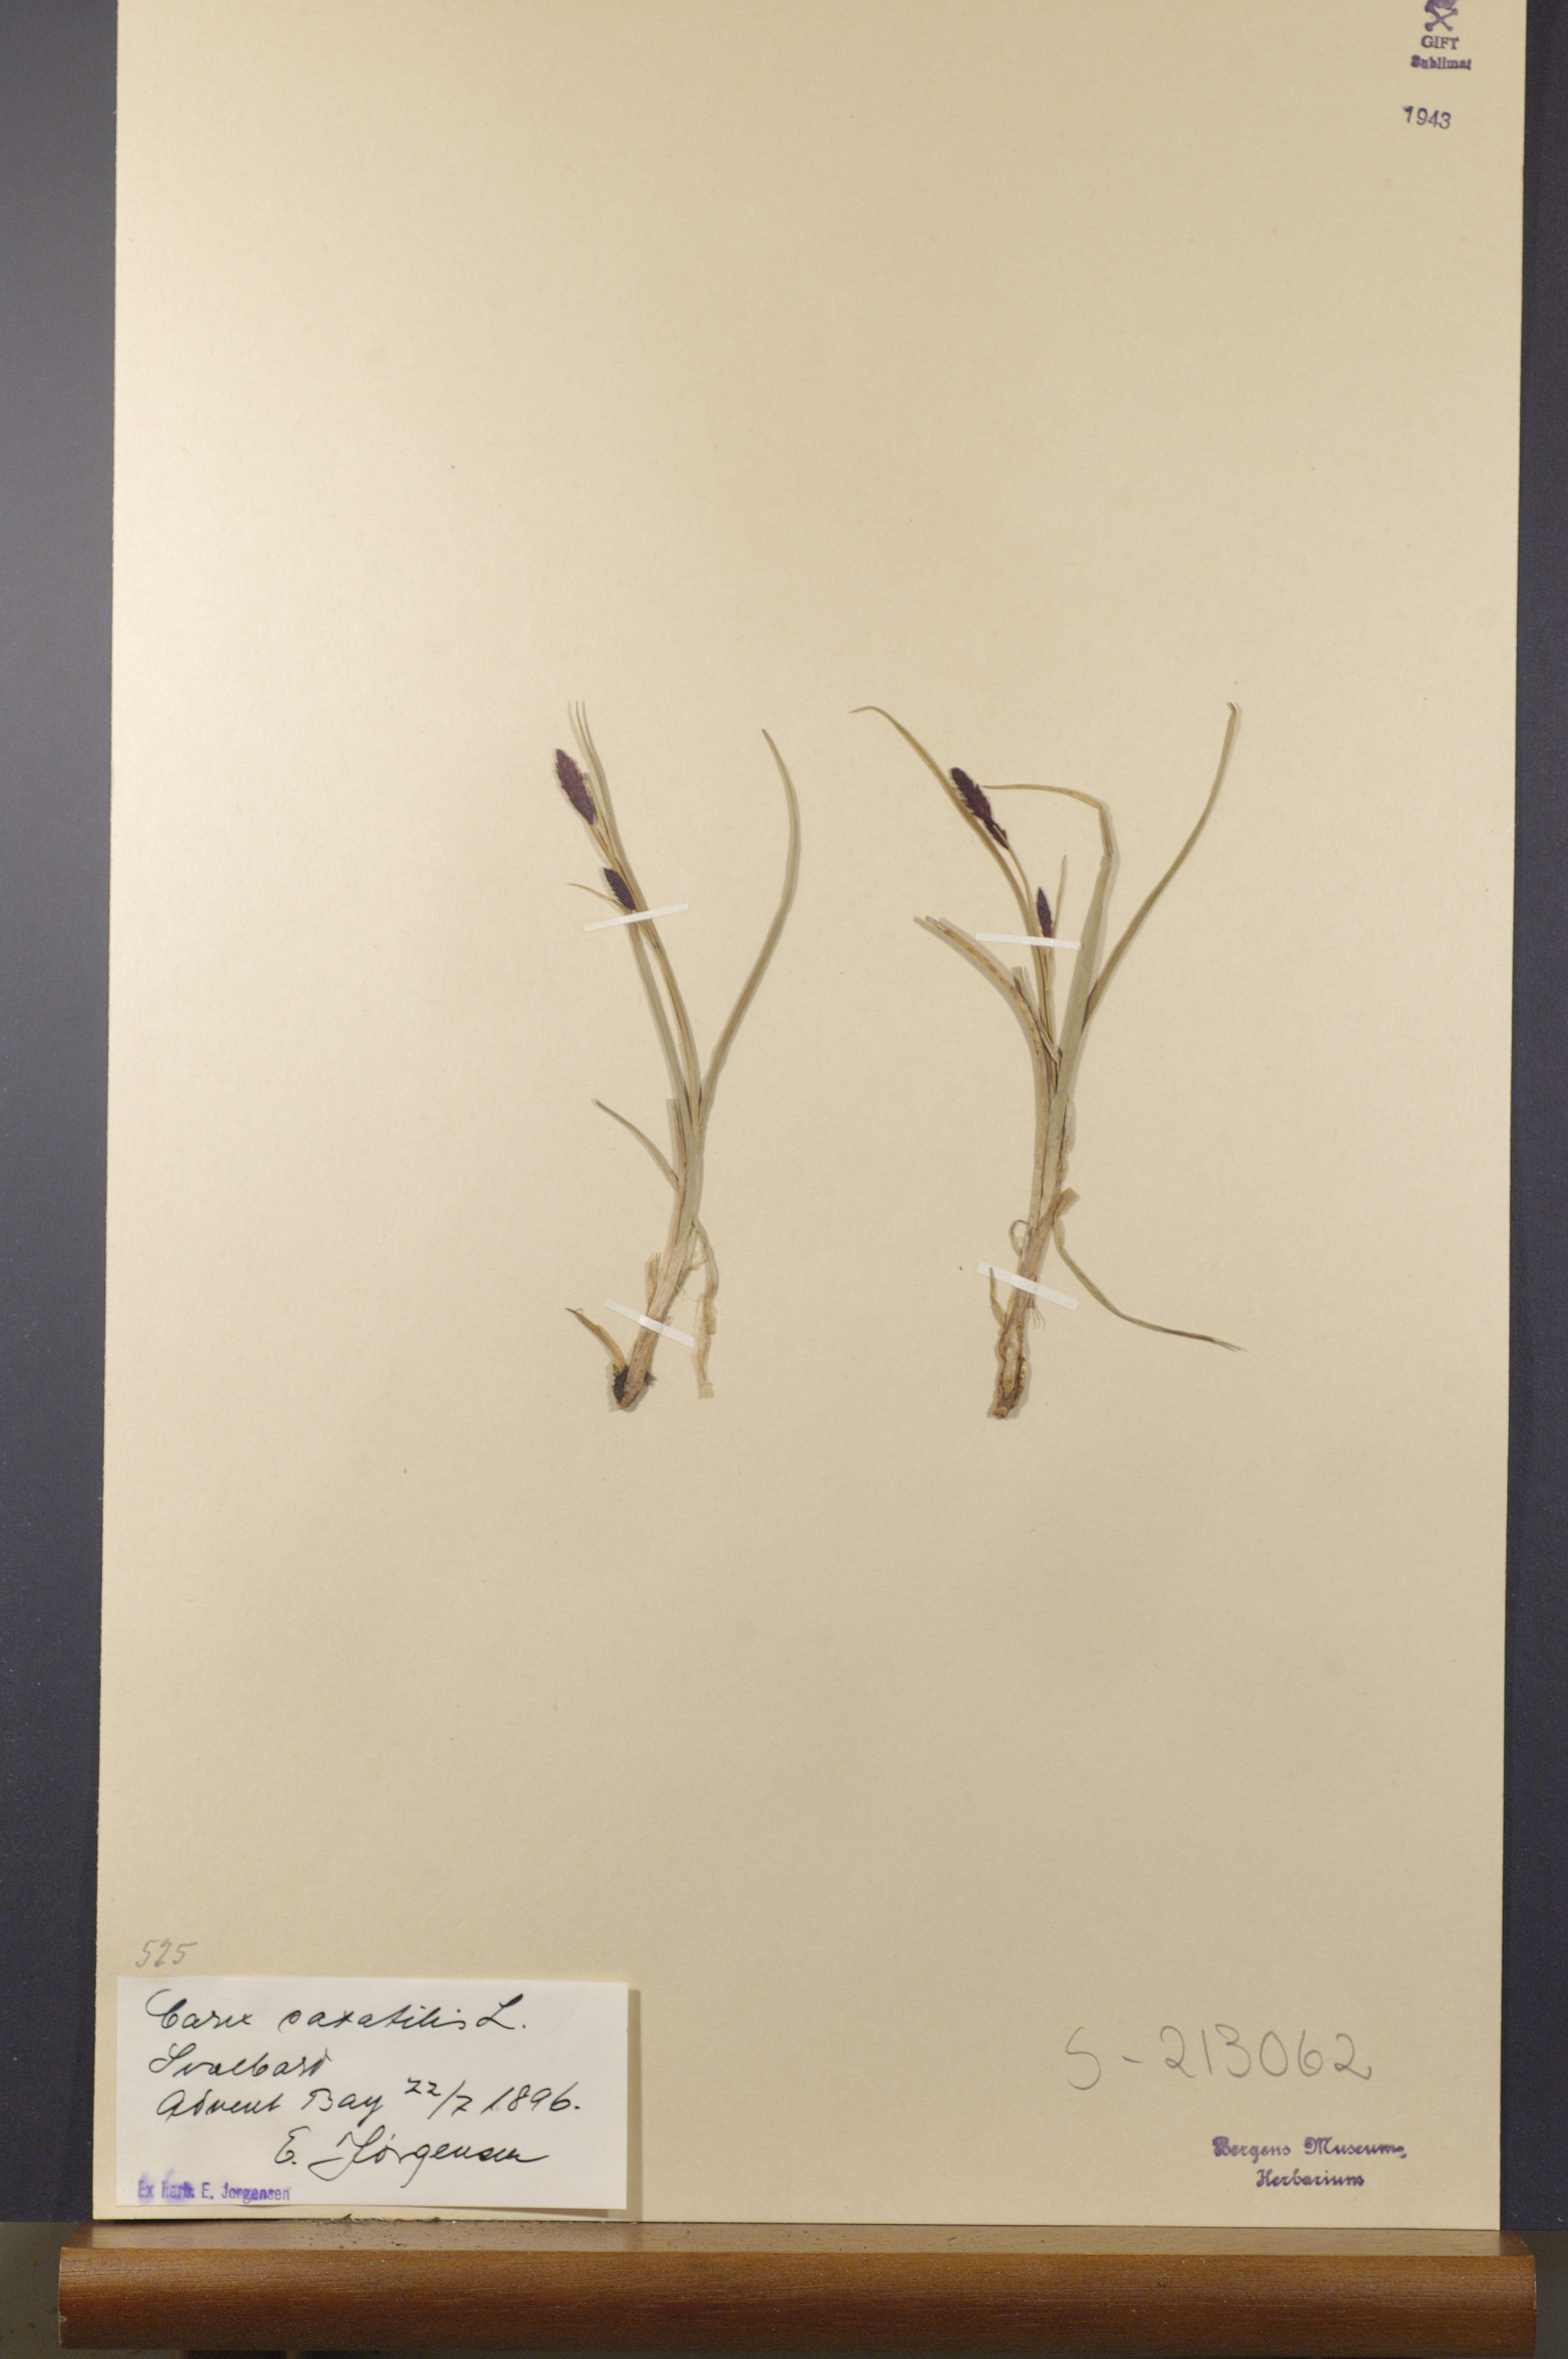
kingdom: Plantae
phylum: Tracheophyta
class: Liliopsida
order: Poales
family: Cyperaceae
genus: Carex
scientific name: Carex saxatilis
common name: Russet sedge
